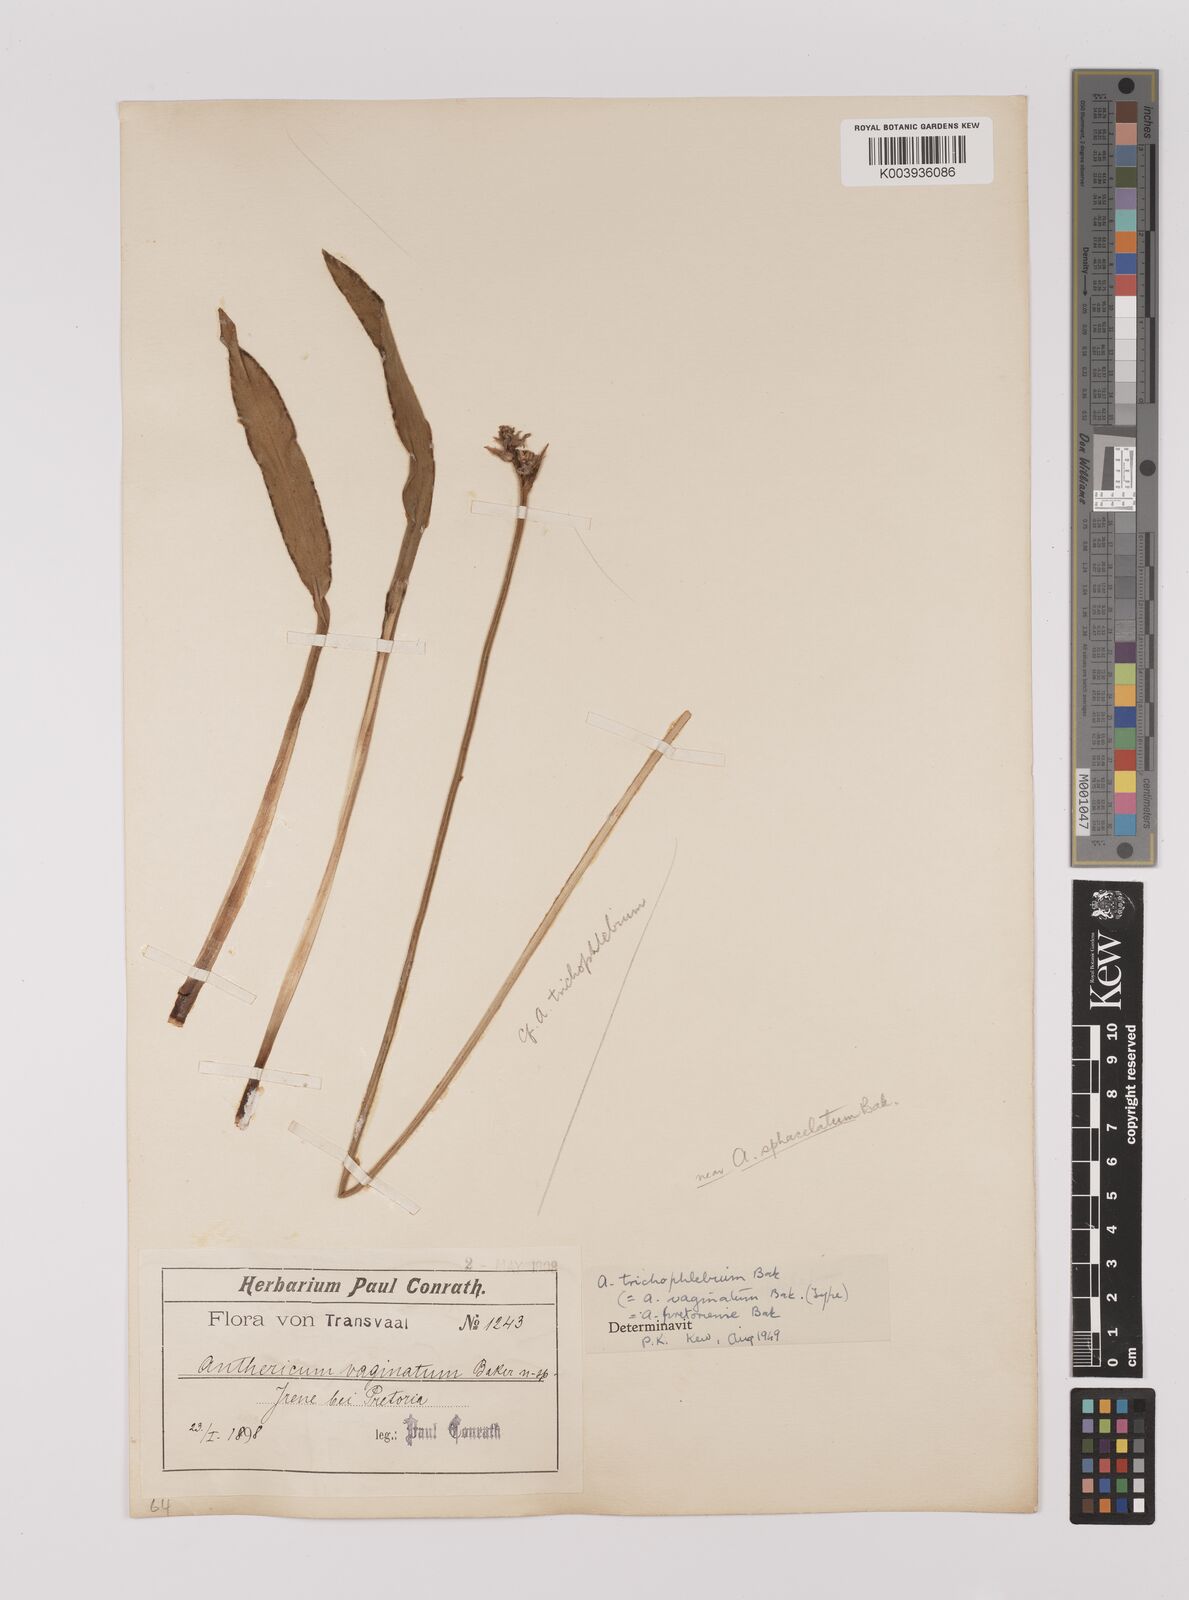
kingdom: Plantae
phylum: Tracheophyta
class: Liliopsida
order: Asparagales
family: Asparagaceae
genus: Chlorophytum
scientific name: Chlorophytum trichophlebium
